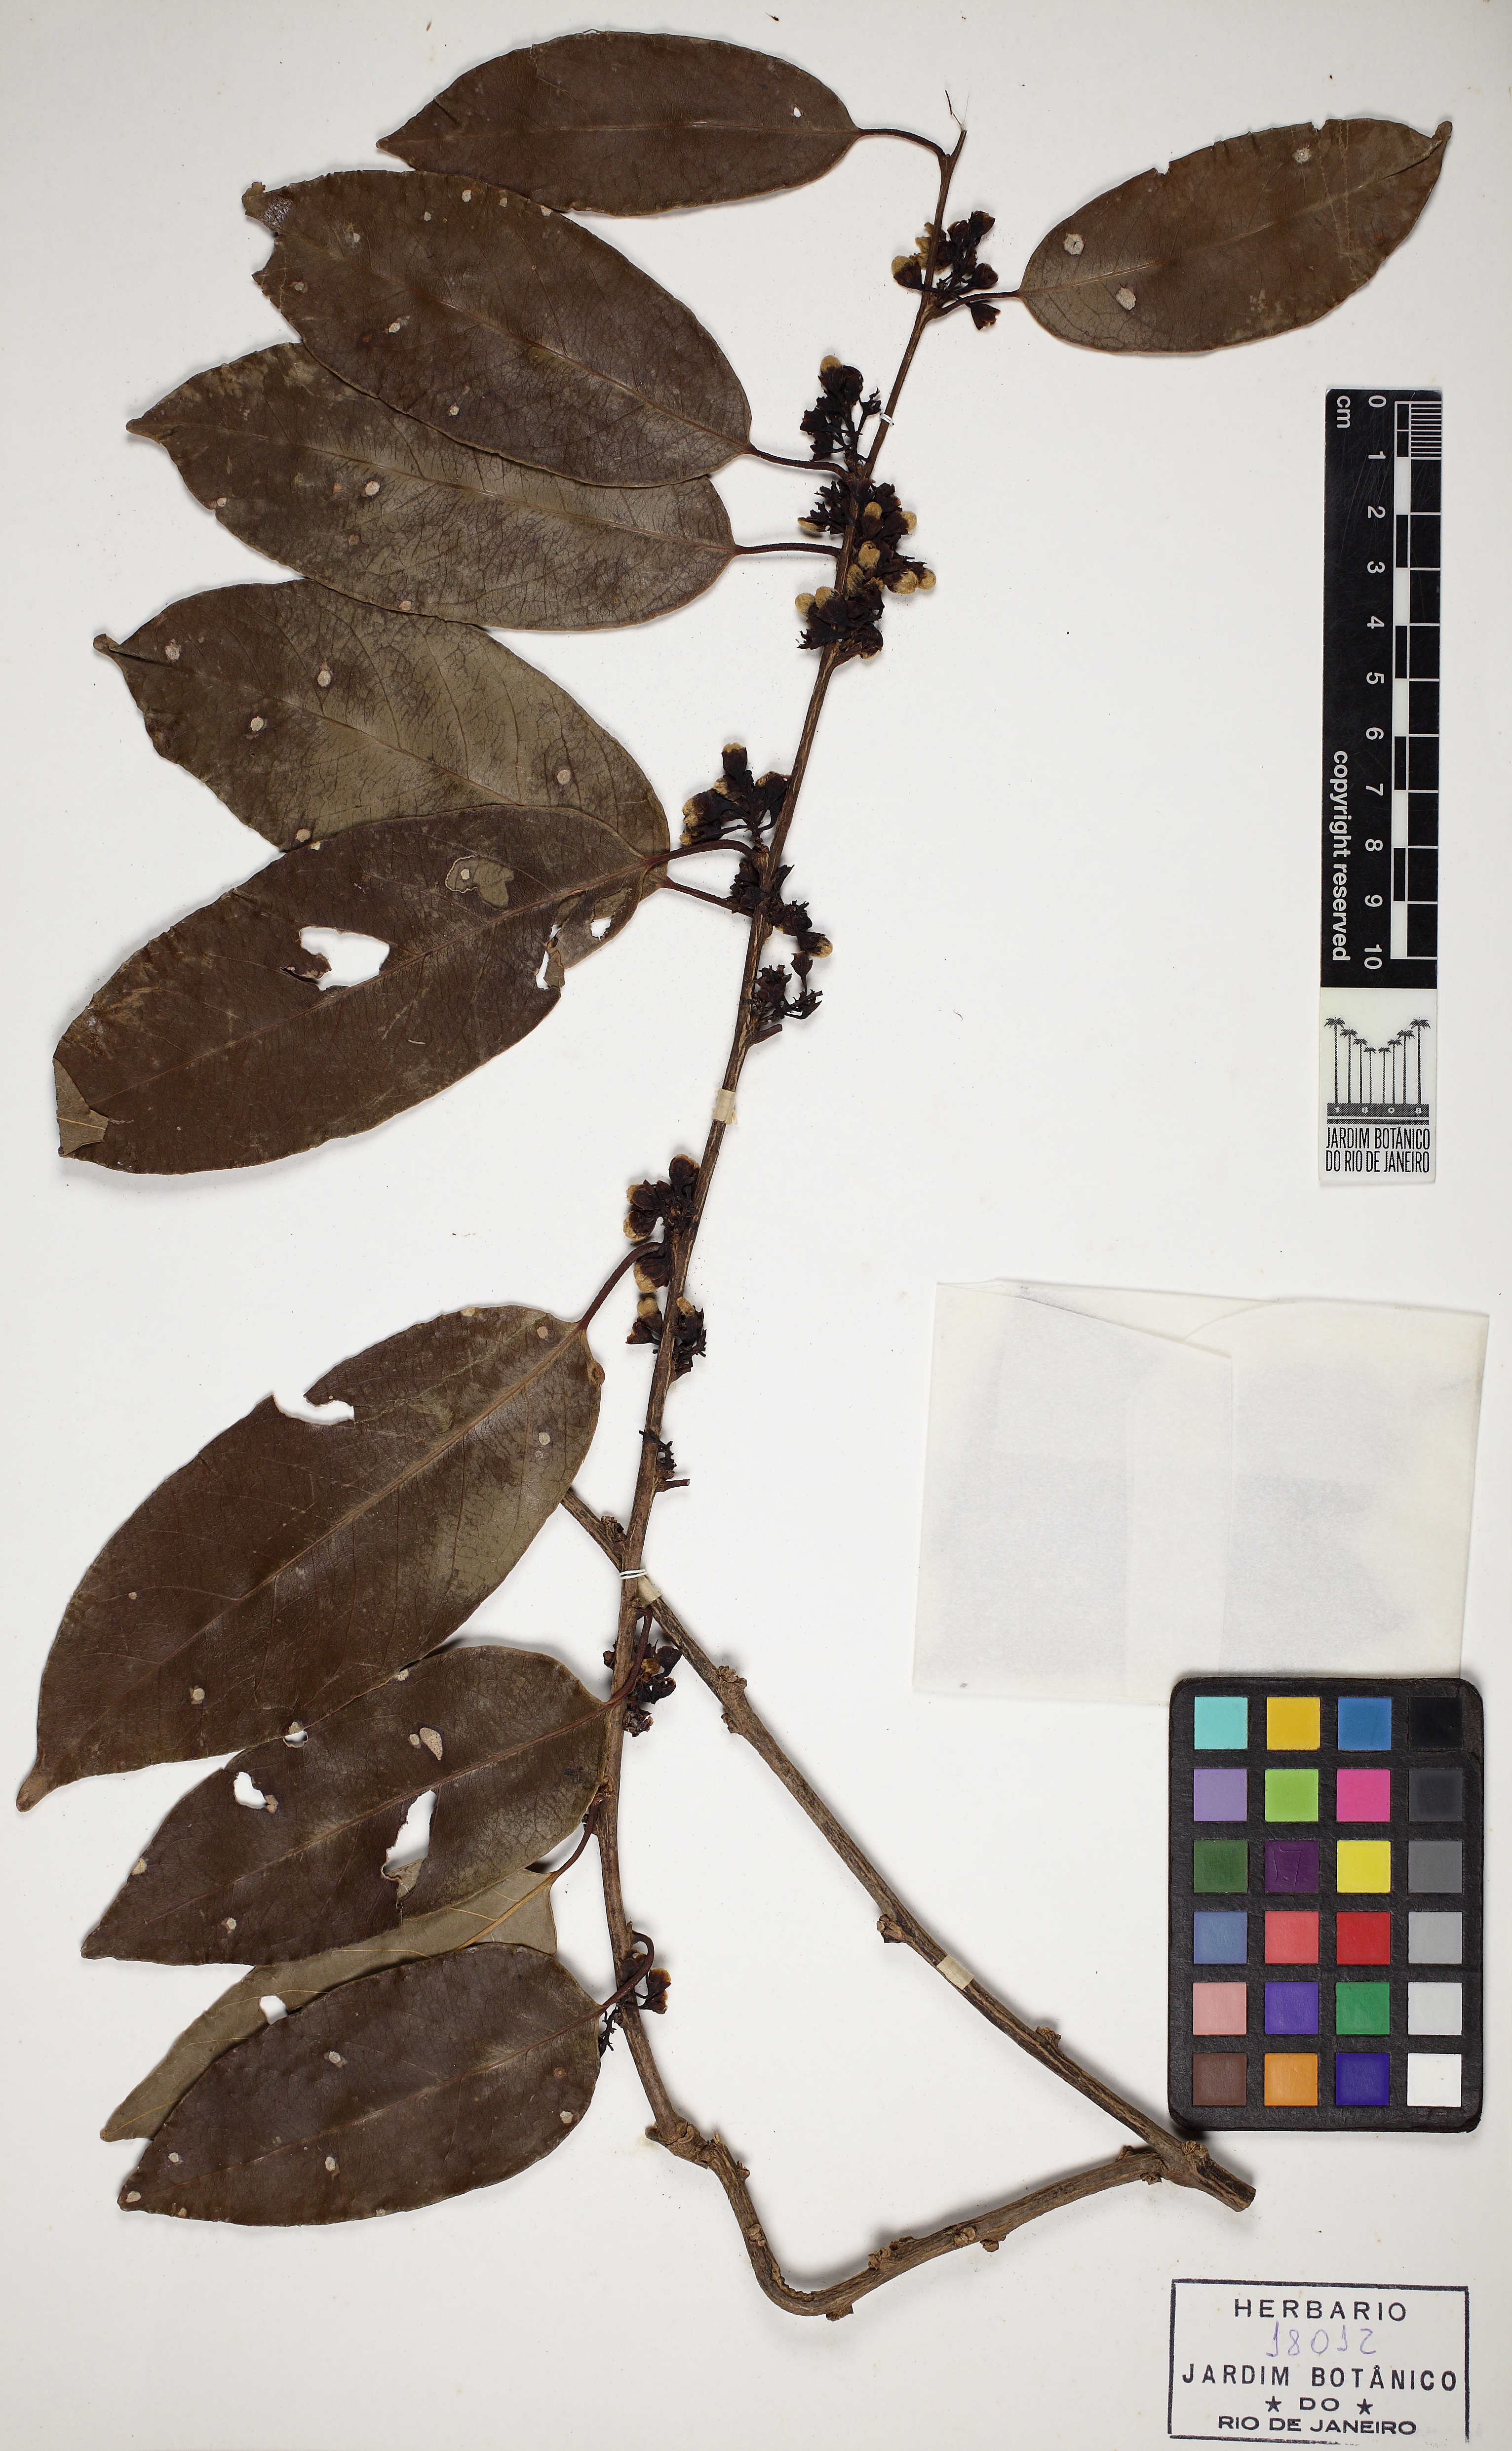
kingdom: Plantae
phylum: Tracheophyta
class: Magnoliopsida
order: Solanales
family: Convolvulaceae
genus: Maripa
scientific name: Maripa reticulata
